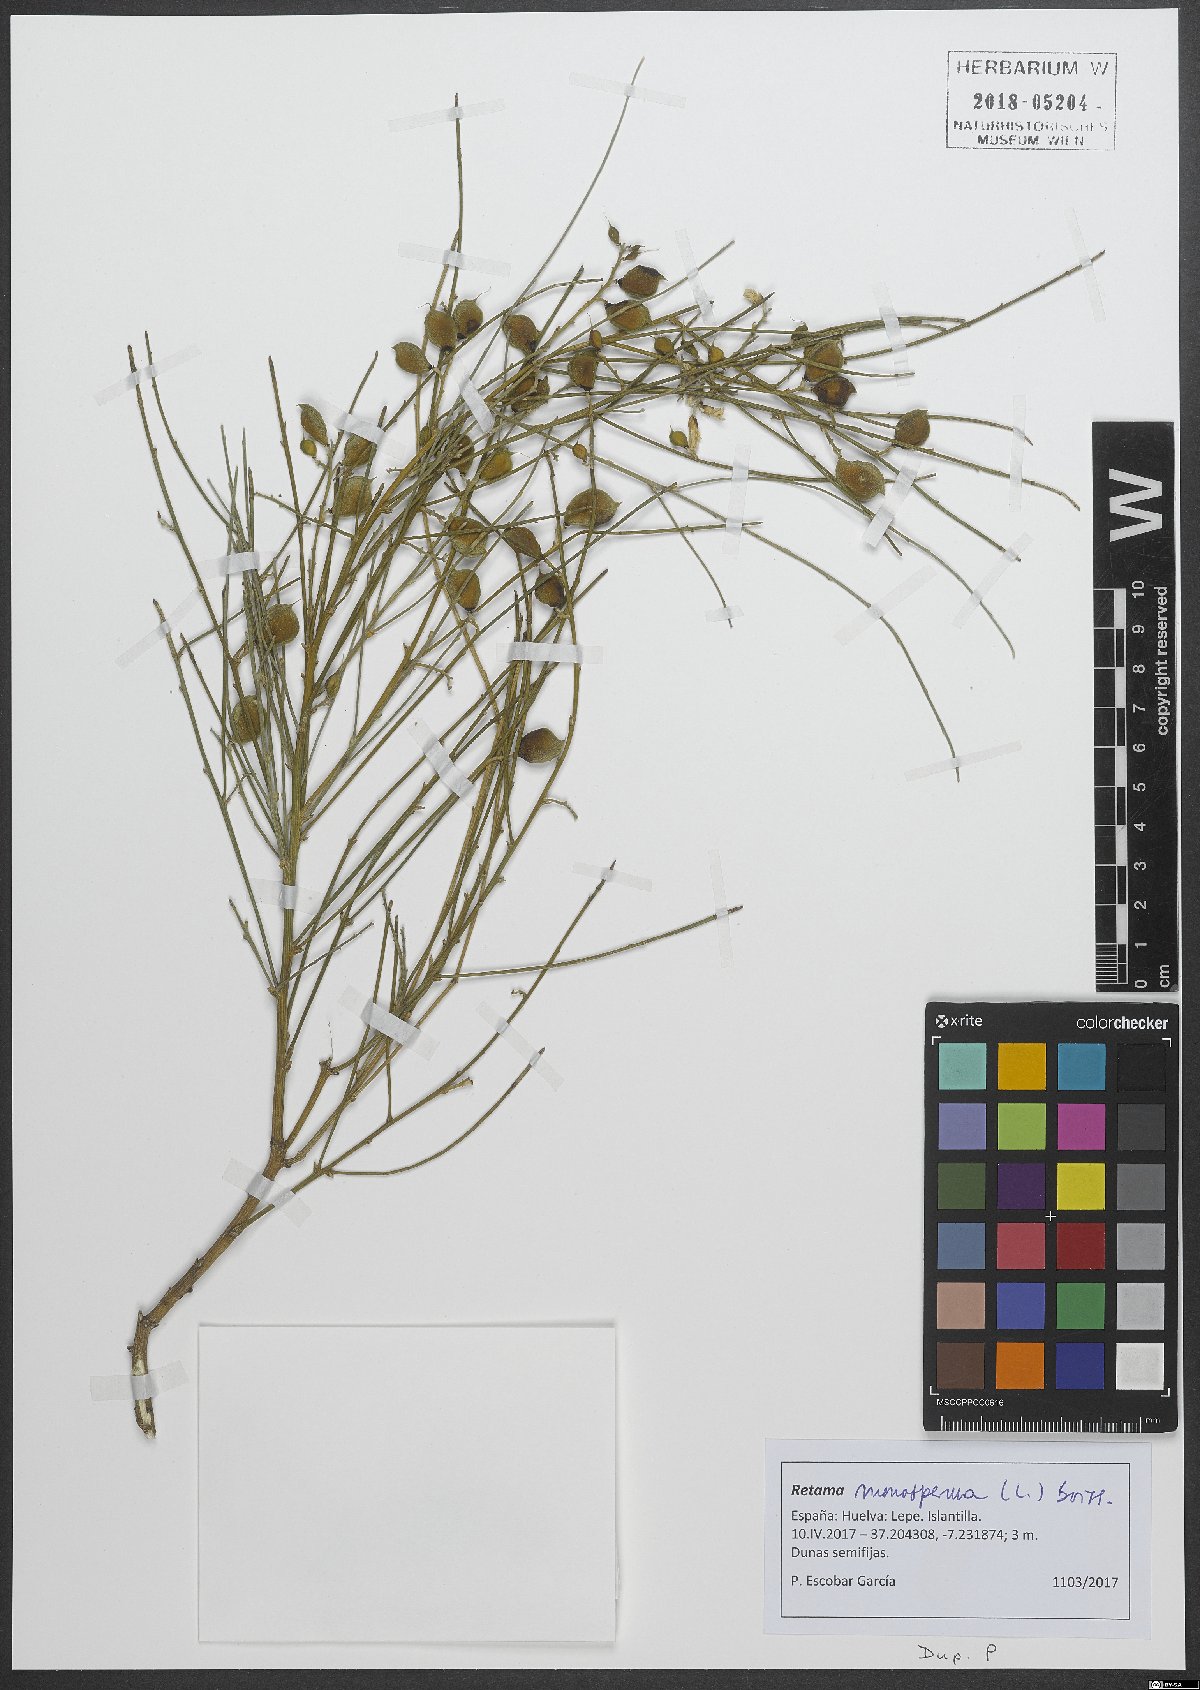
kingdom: Plantae
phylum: Tracheophyta
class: Magnoliopsida
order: Fabales
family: Fabaceae
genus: Retama
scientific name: Retama monosperma
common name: Bridal broom
